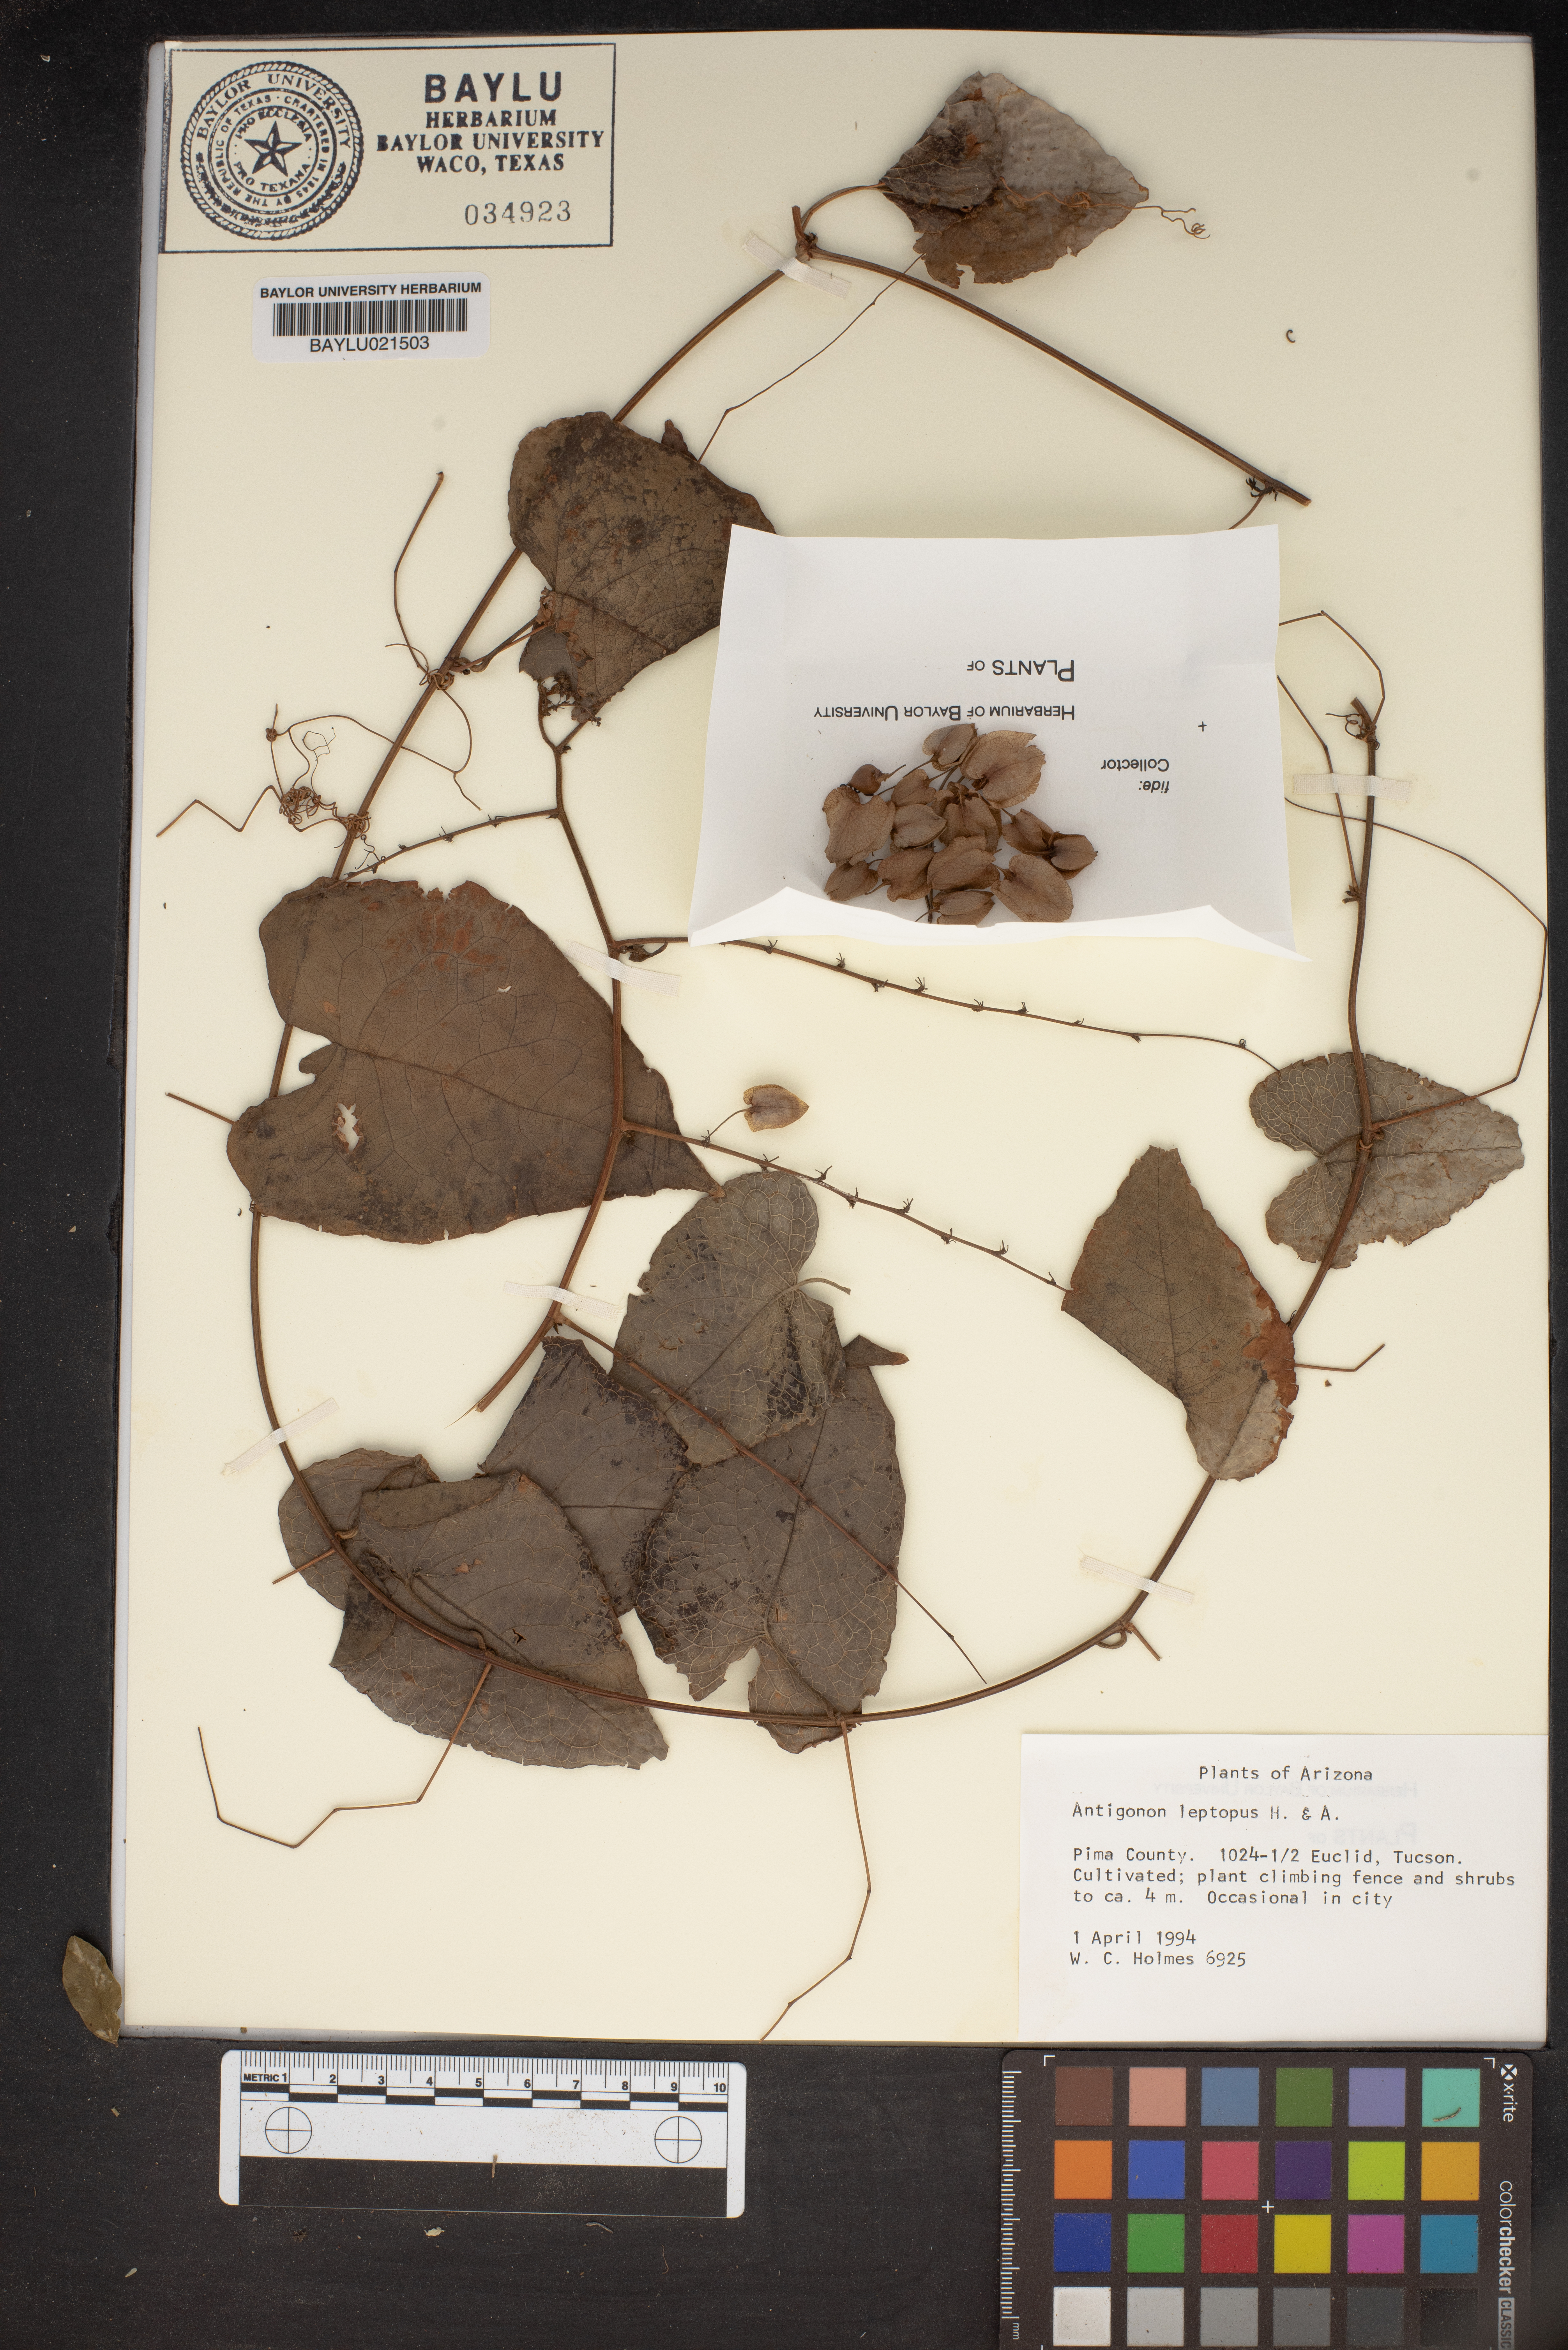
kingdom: Plantae
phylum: Tracheophyta
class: Magnoliopsida
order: Caryophyllales
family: Polygonaceae
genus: Antigonon
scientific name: Antigonon leptopus
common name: Coral vine
